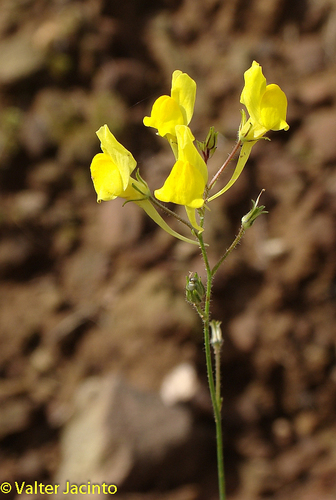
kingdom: Plantae
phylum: Tracheophyta
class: Magnoliopsida
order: Lamiales
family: Plantaginaceae
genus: Linaria
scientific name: Linaria spartea
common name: Ballast toadflax
